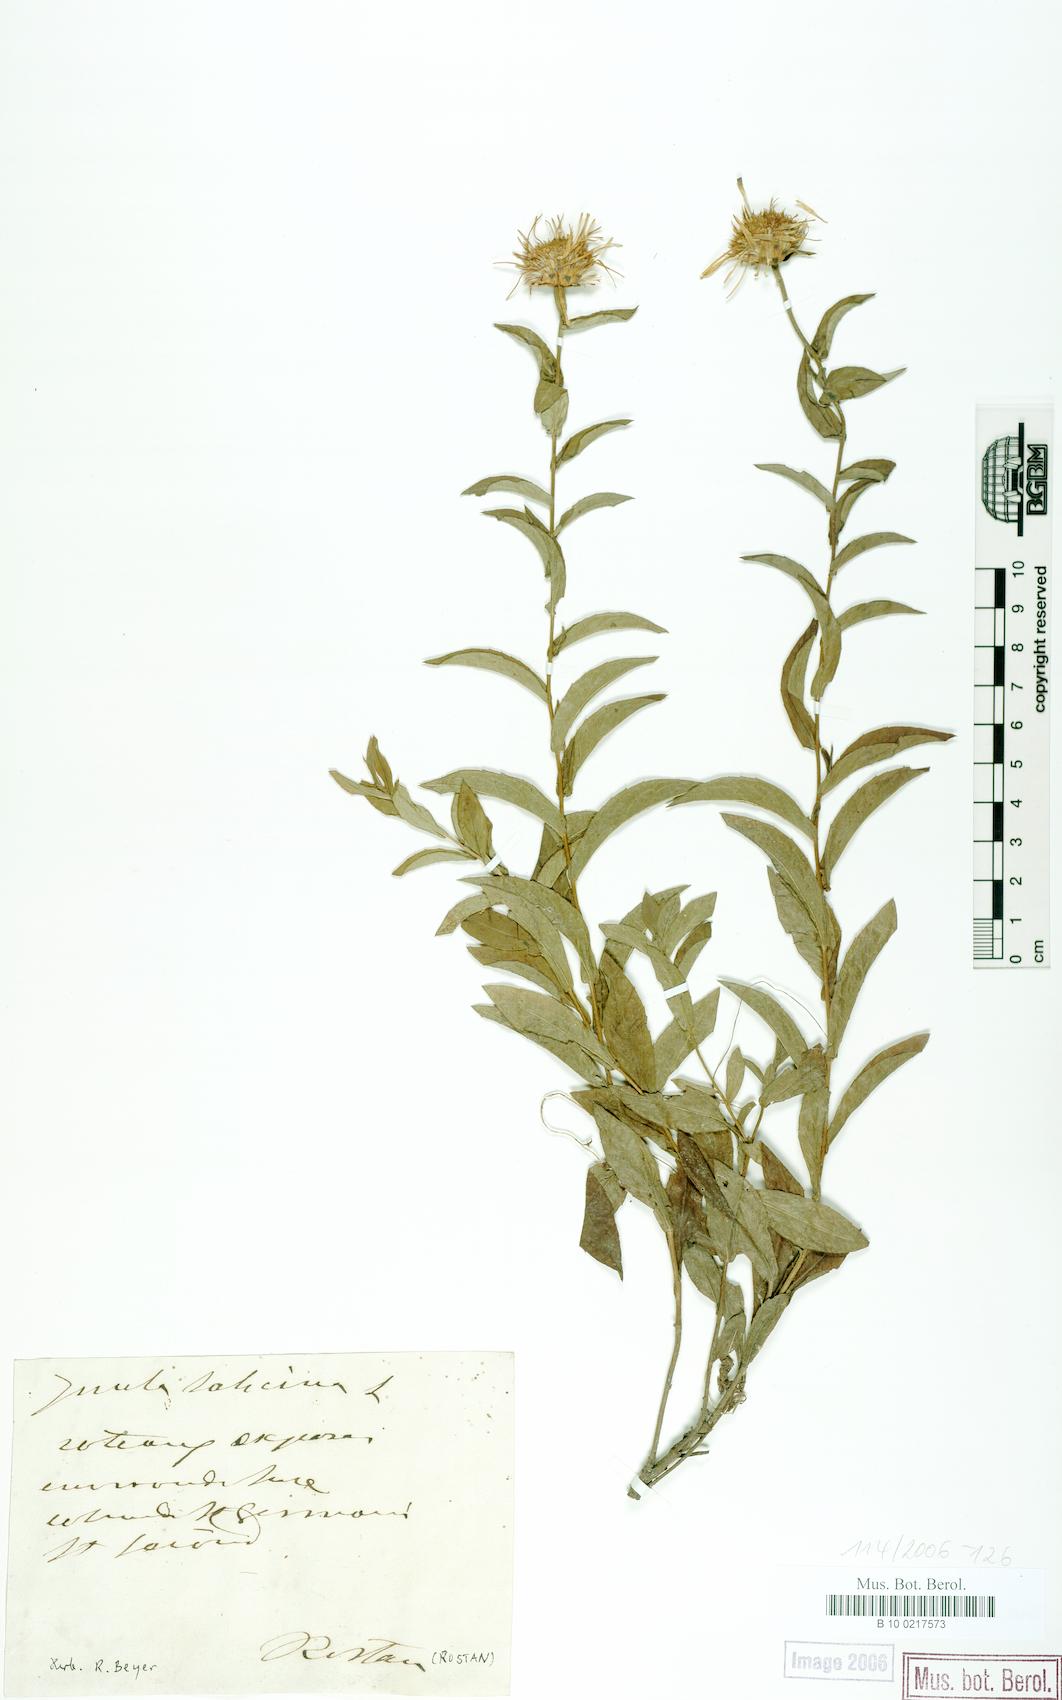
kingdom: Plantae
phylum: Tracheophyta
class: Magnoliopsida
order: Asterales
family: Asteraceae
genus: Pentanema
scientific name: Pentanema salicinum
